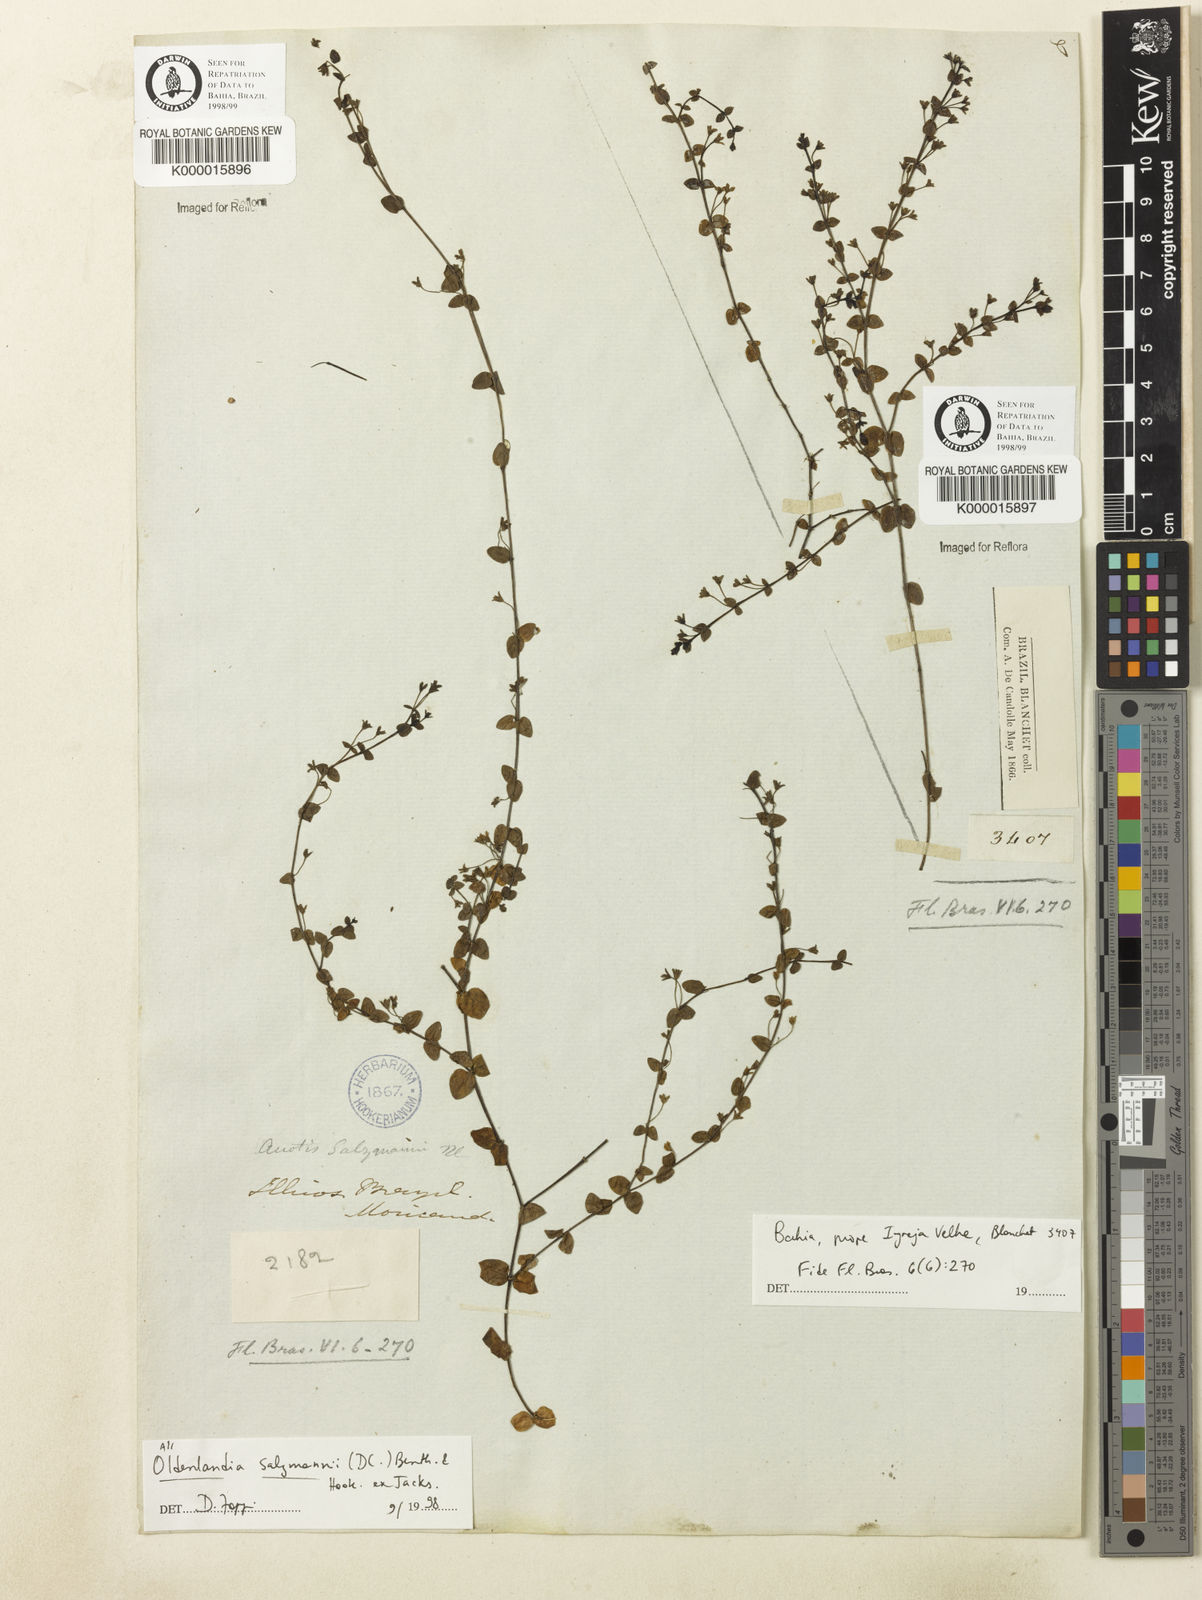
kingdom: Plantae
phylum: Tracheophyta
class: Magnoliopsida
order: Gentianales
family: Rubiaceae
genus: Oldenlandia
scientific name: Oldenlandia salzmannii
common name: Salzmann's mille graines
